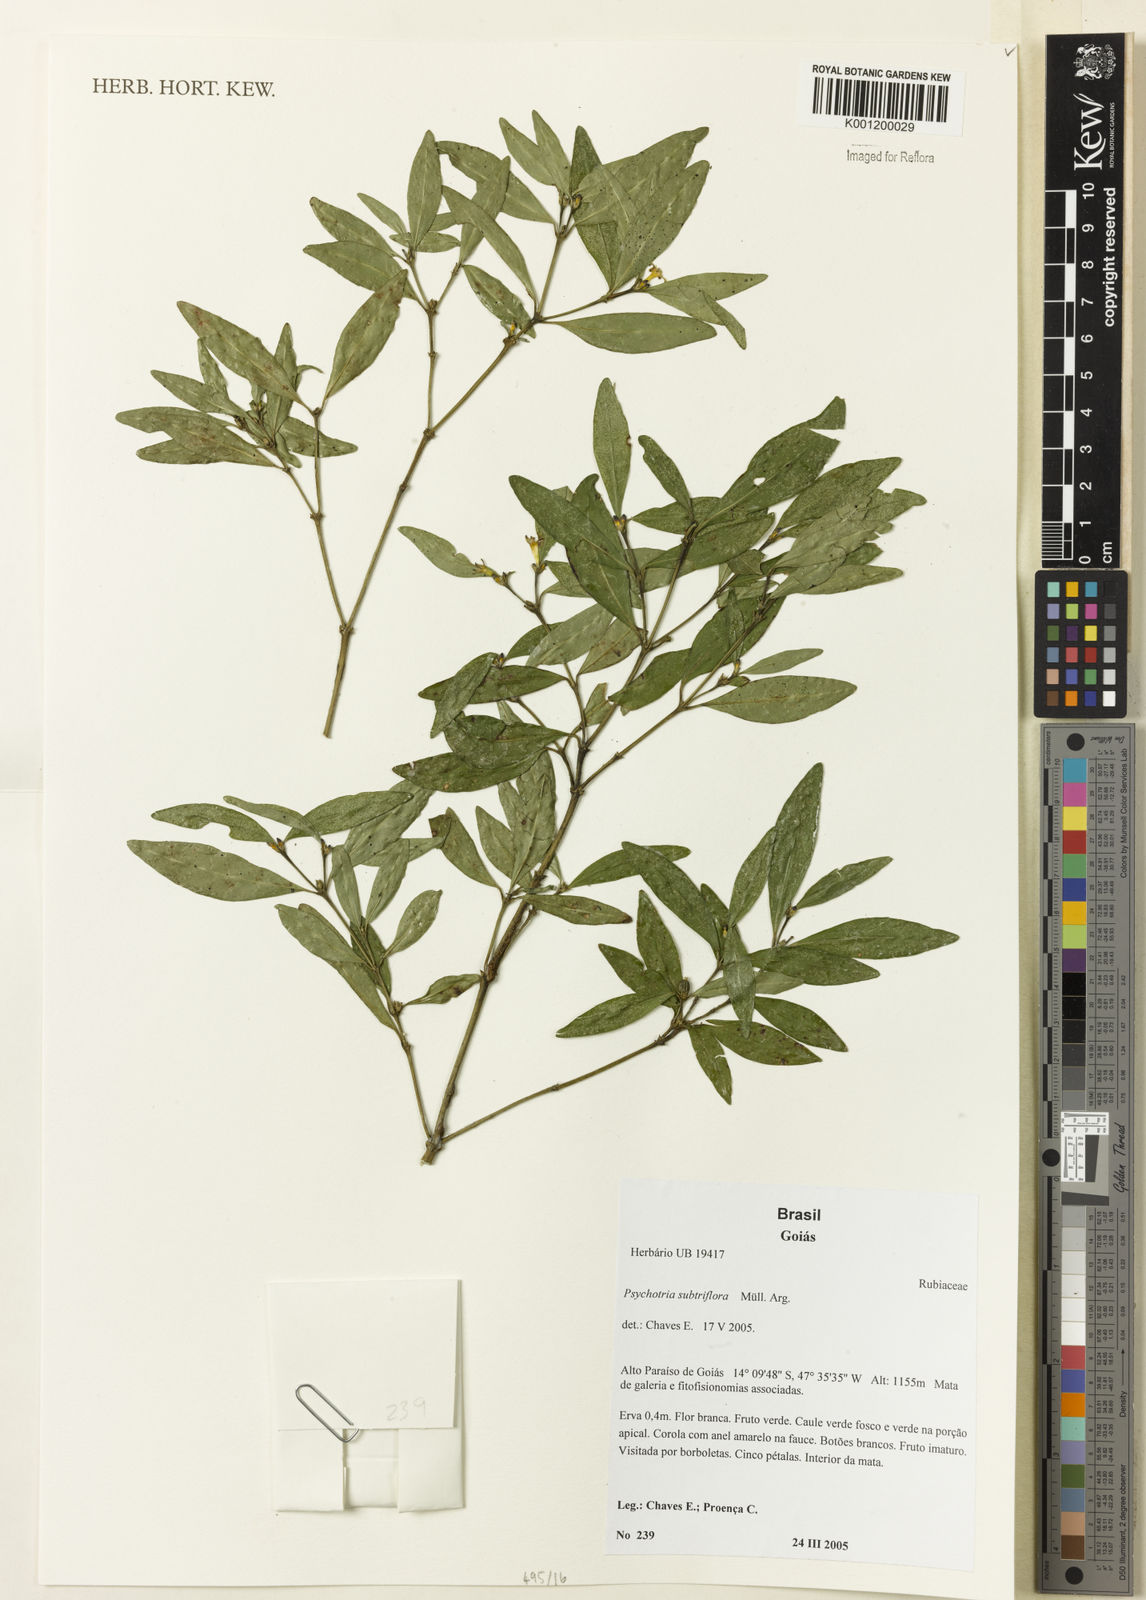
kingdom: Plantae
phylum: Tracheophyta
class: Magnoliopsida
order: Gentianales
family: Rubiaceae
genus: Psychotria
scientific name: Psychotria
